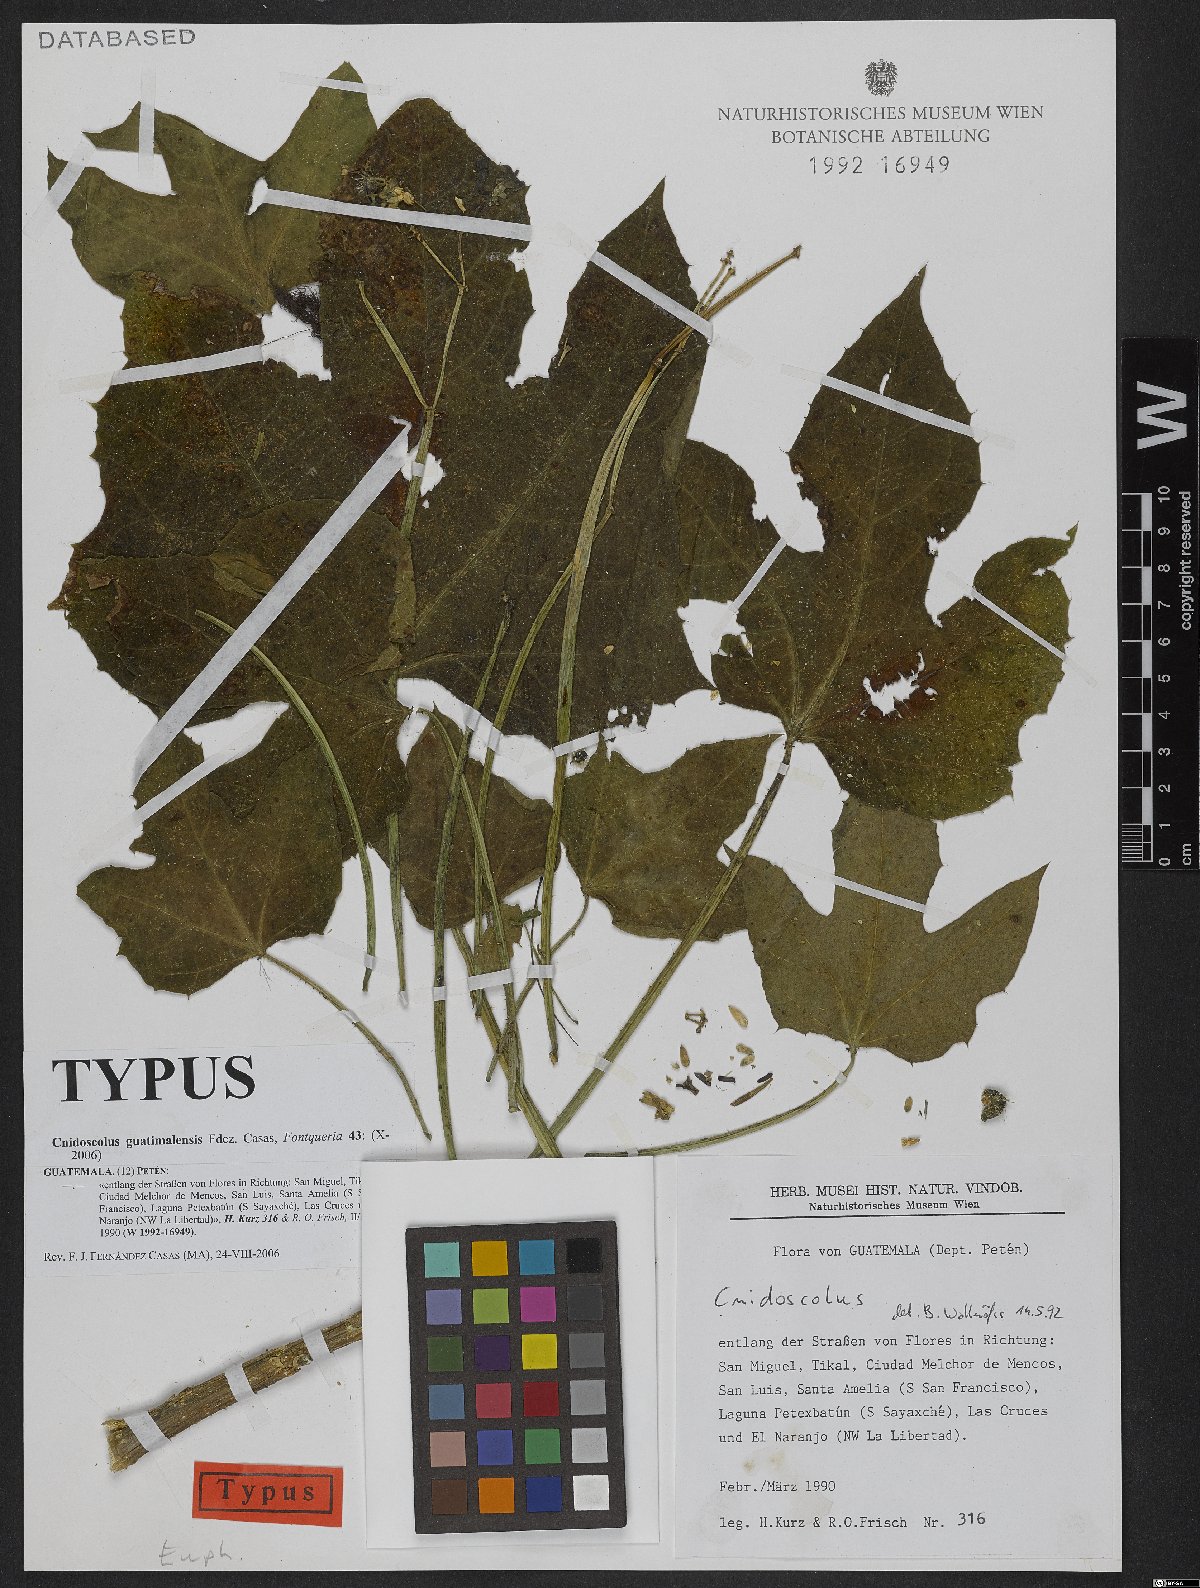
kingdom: Plantae
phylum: Tracheophyta
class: Magnoliopsida
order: Malpighiales
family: Euphorbiaceae
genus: Cnidoscolus
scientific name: Cnidoscolus guatimalensis
